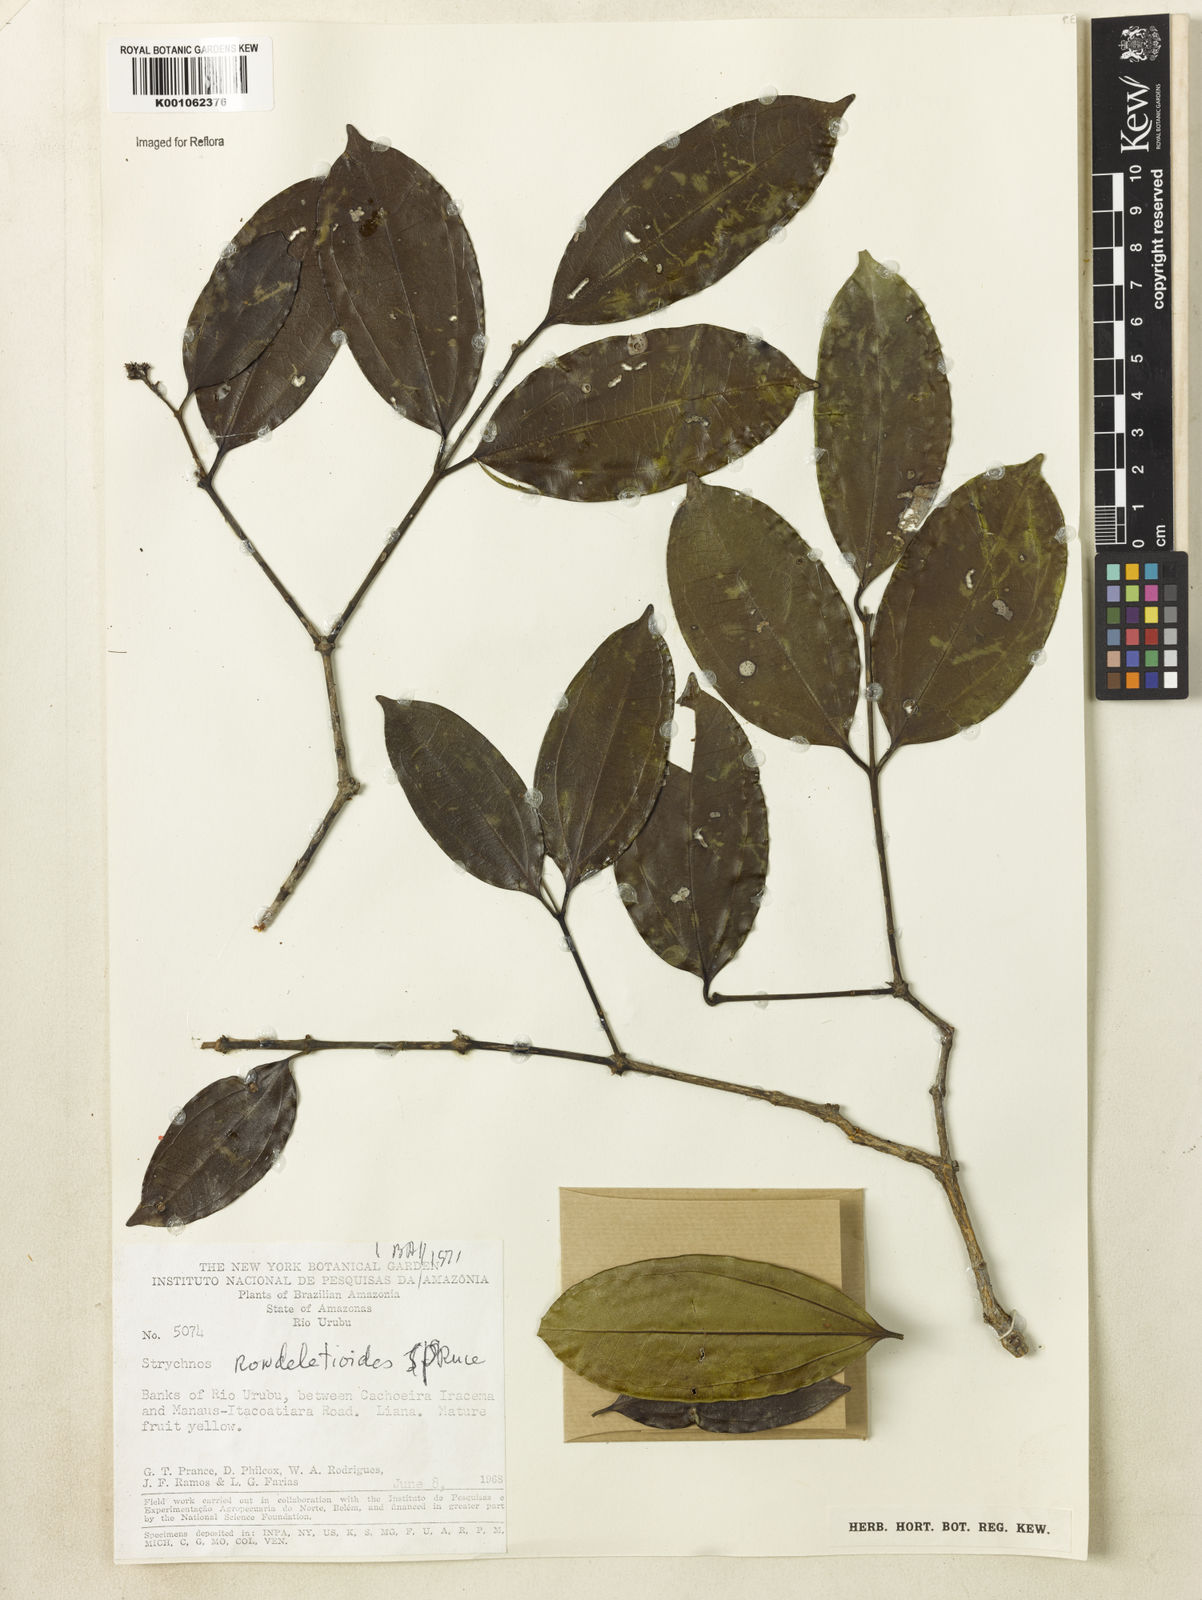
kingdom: Plantae
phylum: Tracheophyta
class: Magnoliopsida
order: Gentianales
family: Loganiaceae
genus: Strychnos
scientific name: Strychnos rondeletioides
